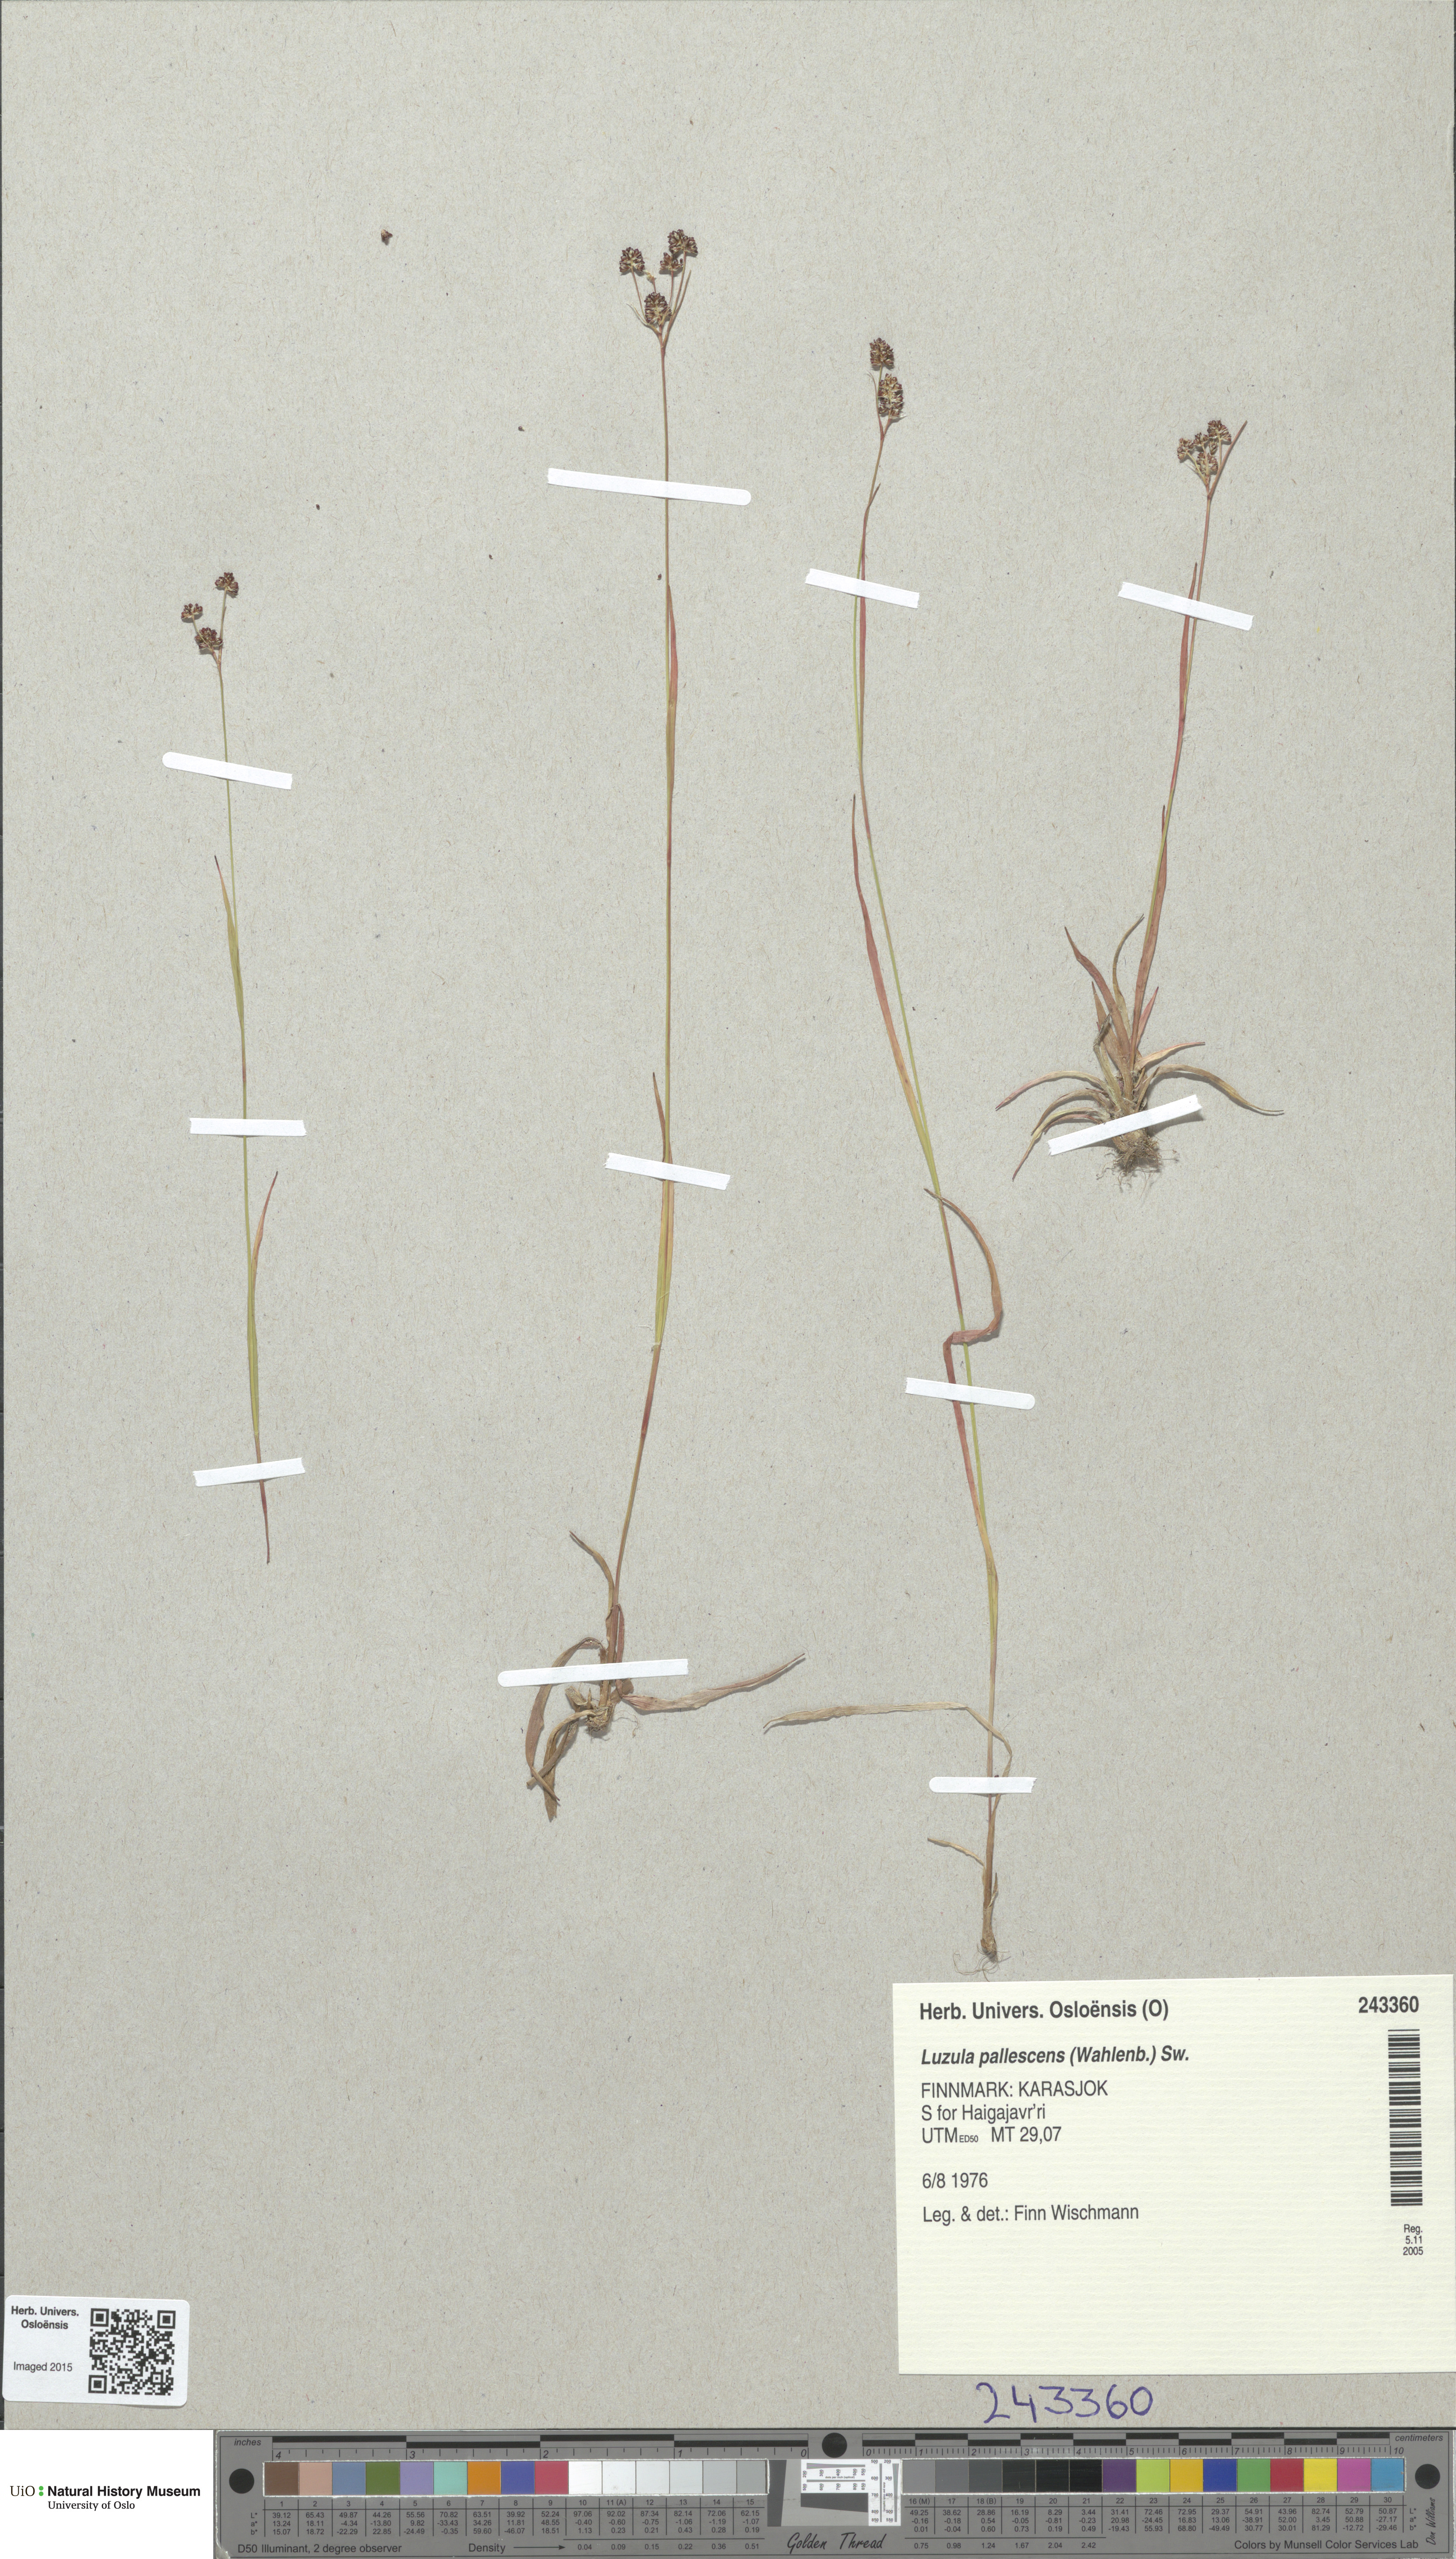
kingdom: Plantae
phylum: Tracheophyta
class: Liliopsida
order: Poales
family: Juncaceae
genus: Luzula
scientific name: Luzula pallescens
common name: Fen wood-rush
